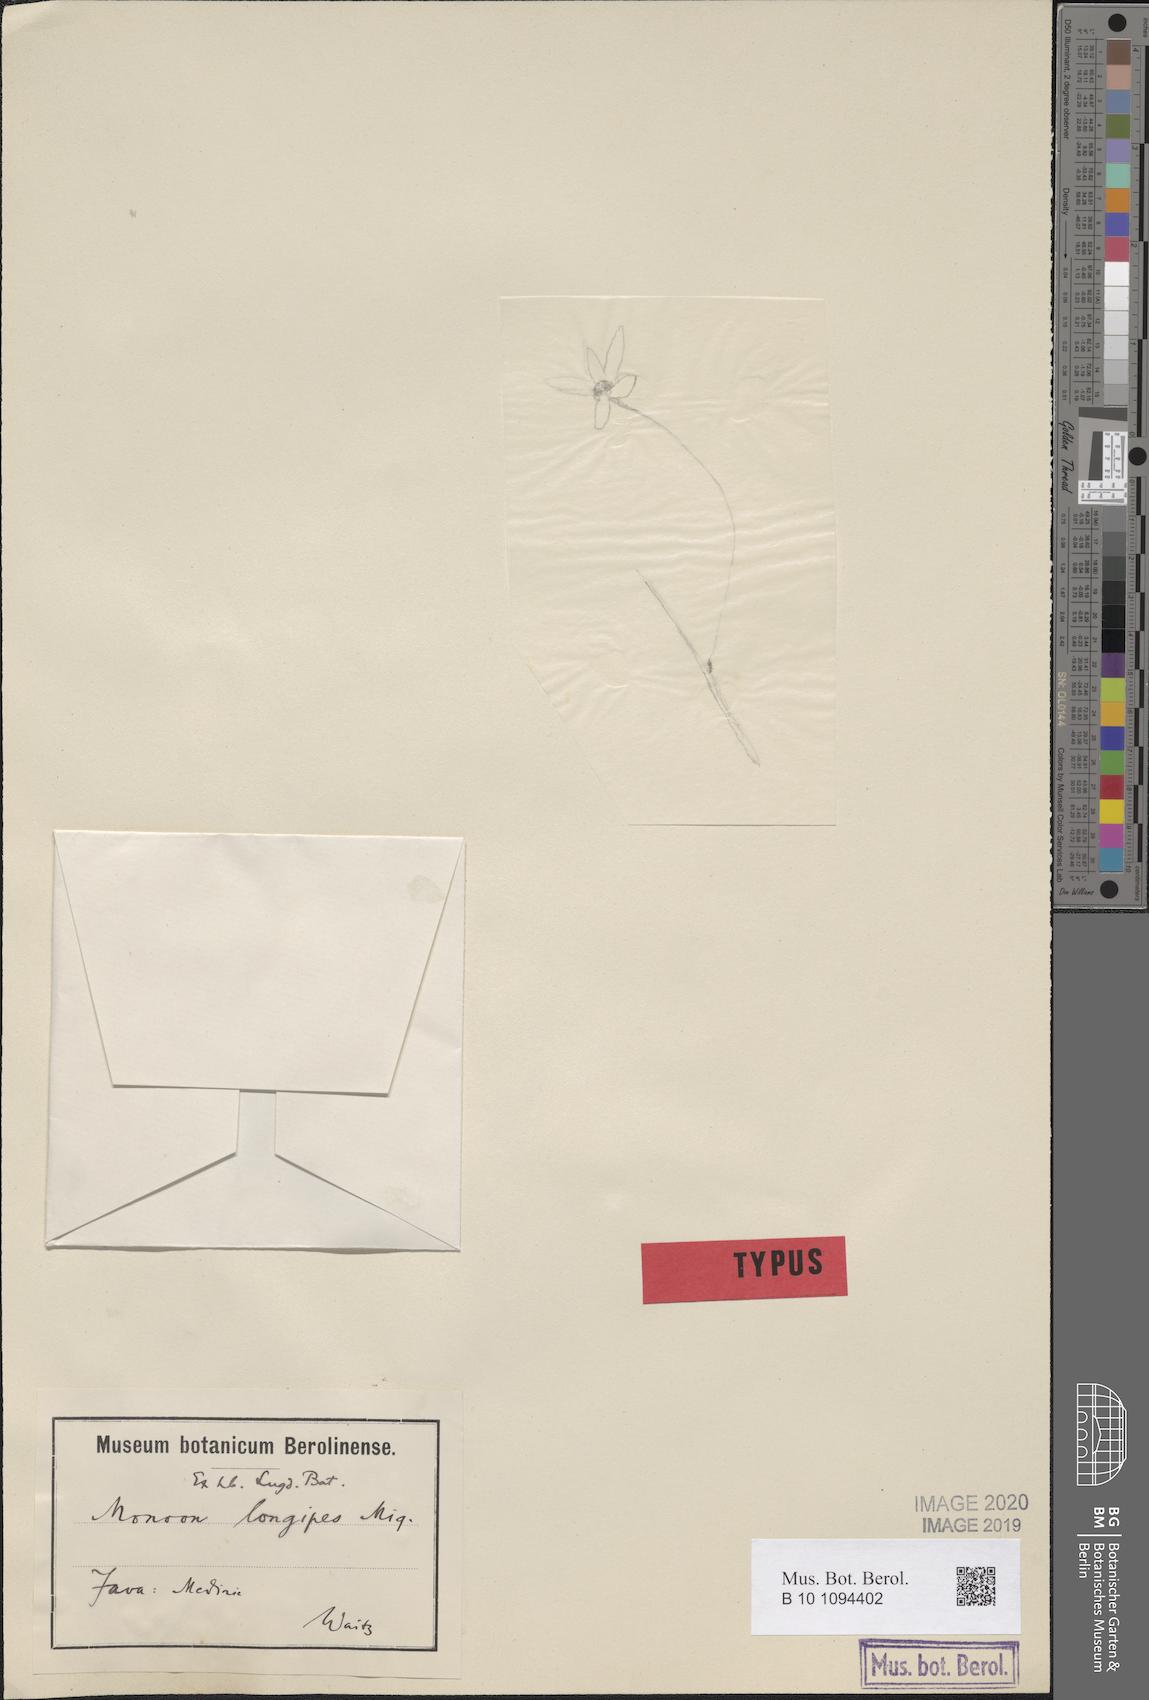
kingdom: Plantae
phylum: Tracheophyta
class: Magnoliopsida
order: Magnoliales
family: Annonaceae
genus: Polyalthia
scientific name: Polyalthia longipes
